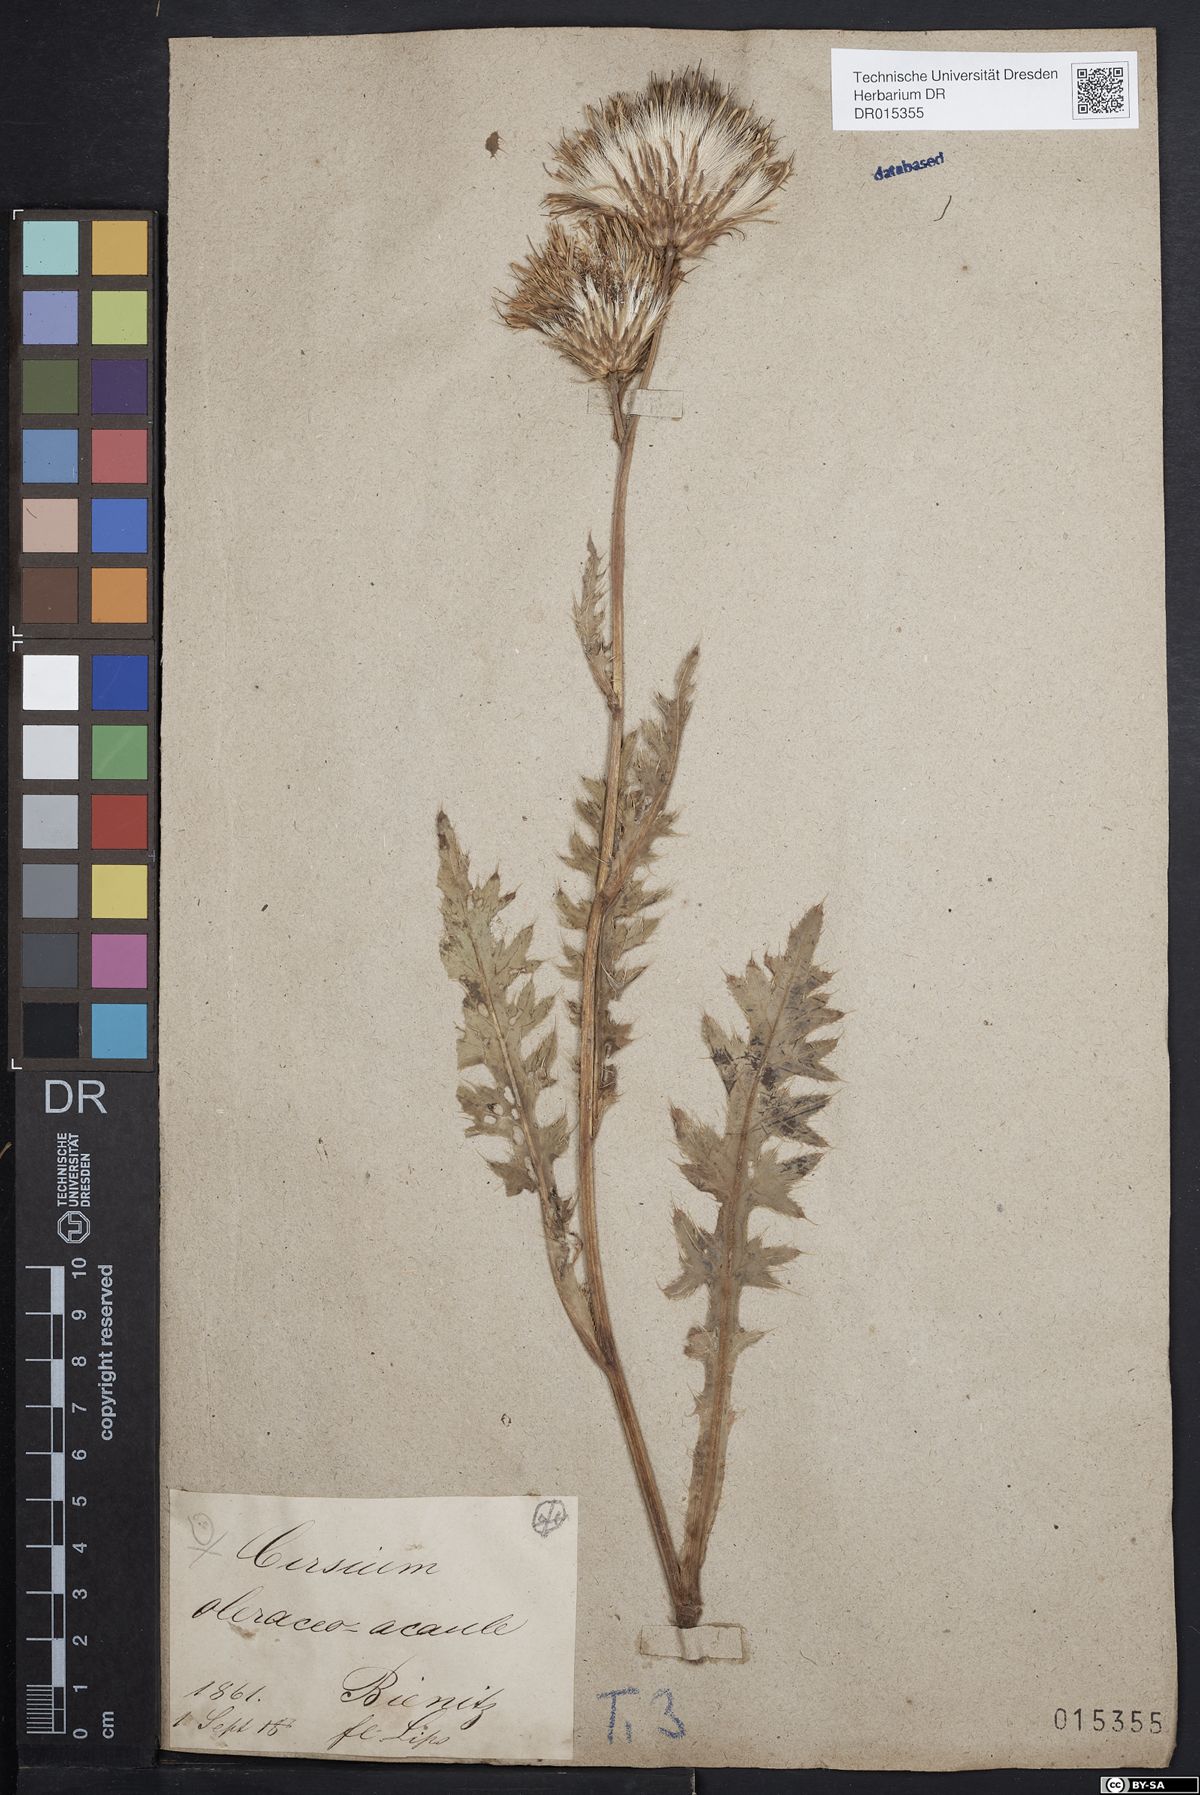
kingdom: Plantae
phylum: Tracheophyta
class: Magnoliopsida
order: Asterales
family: Asteraceae
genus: Cirsium
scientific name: Cirsium rigens
